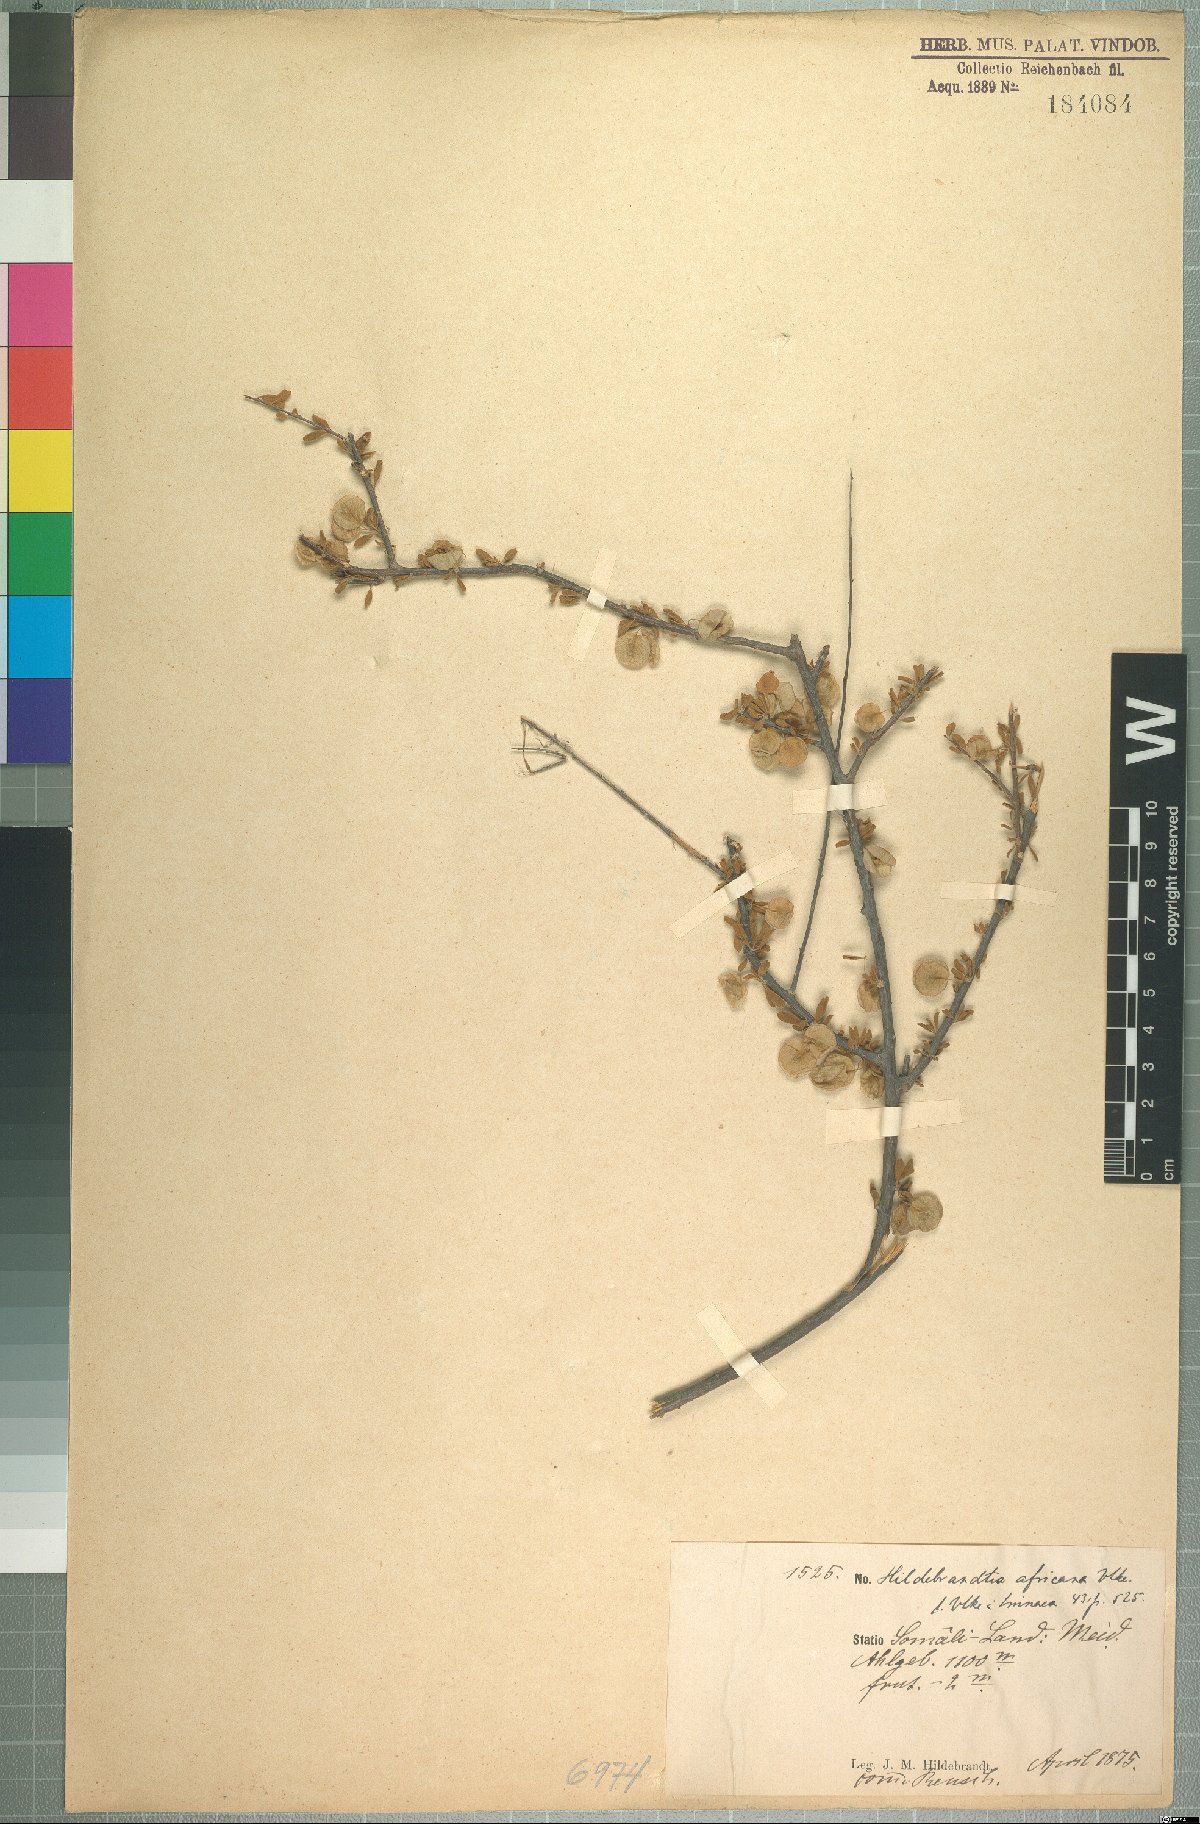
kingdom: Plantae
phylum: Tracheophyta
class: Magnoliopsida
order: Solanales
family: Convolvulaceae
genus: Hildebrandtia
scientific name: Hildebrandtia africana
